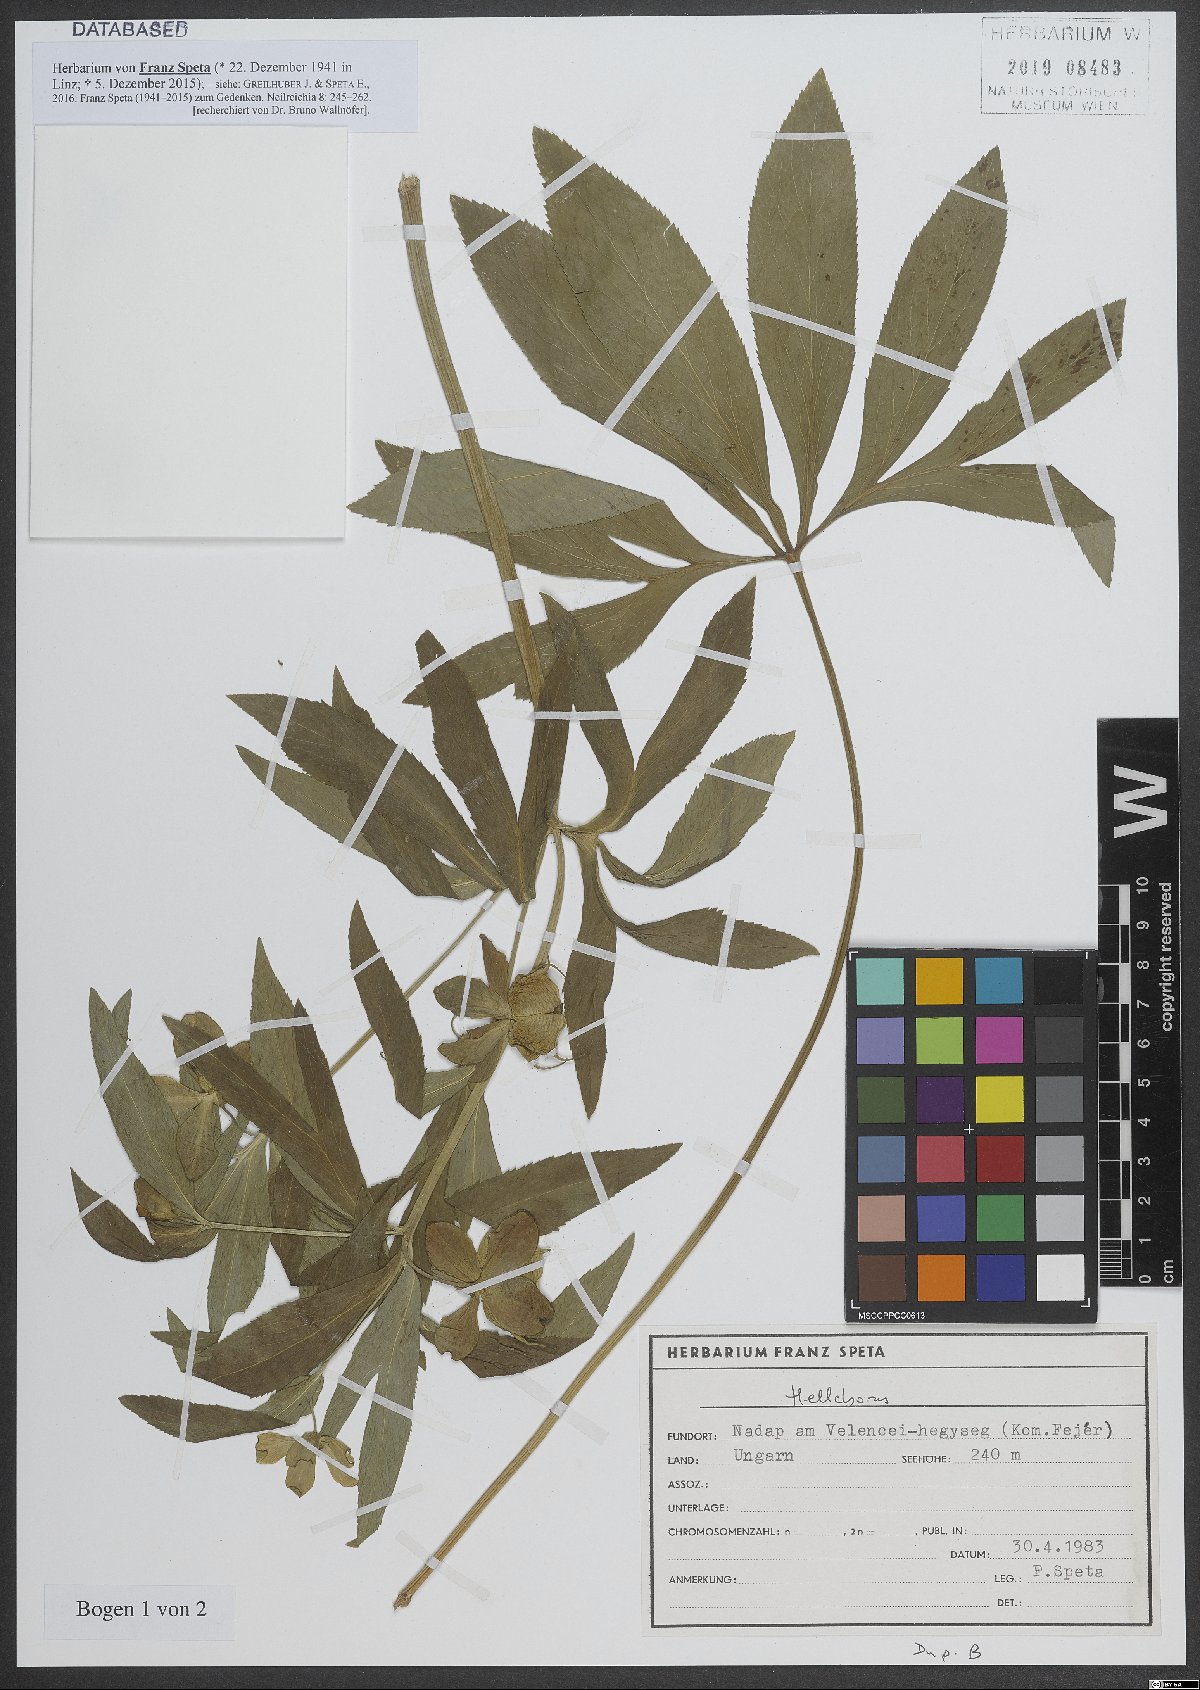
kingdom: Plantae
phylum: Tracheophyta
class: Magnoliopsida
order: Ranunculales
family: Ranunculaceae
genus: Helleborus
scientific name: Helleborus
